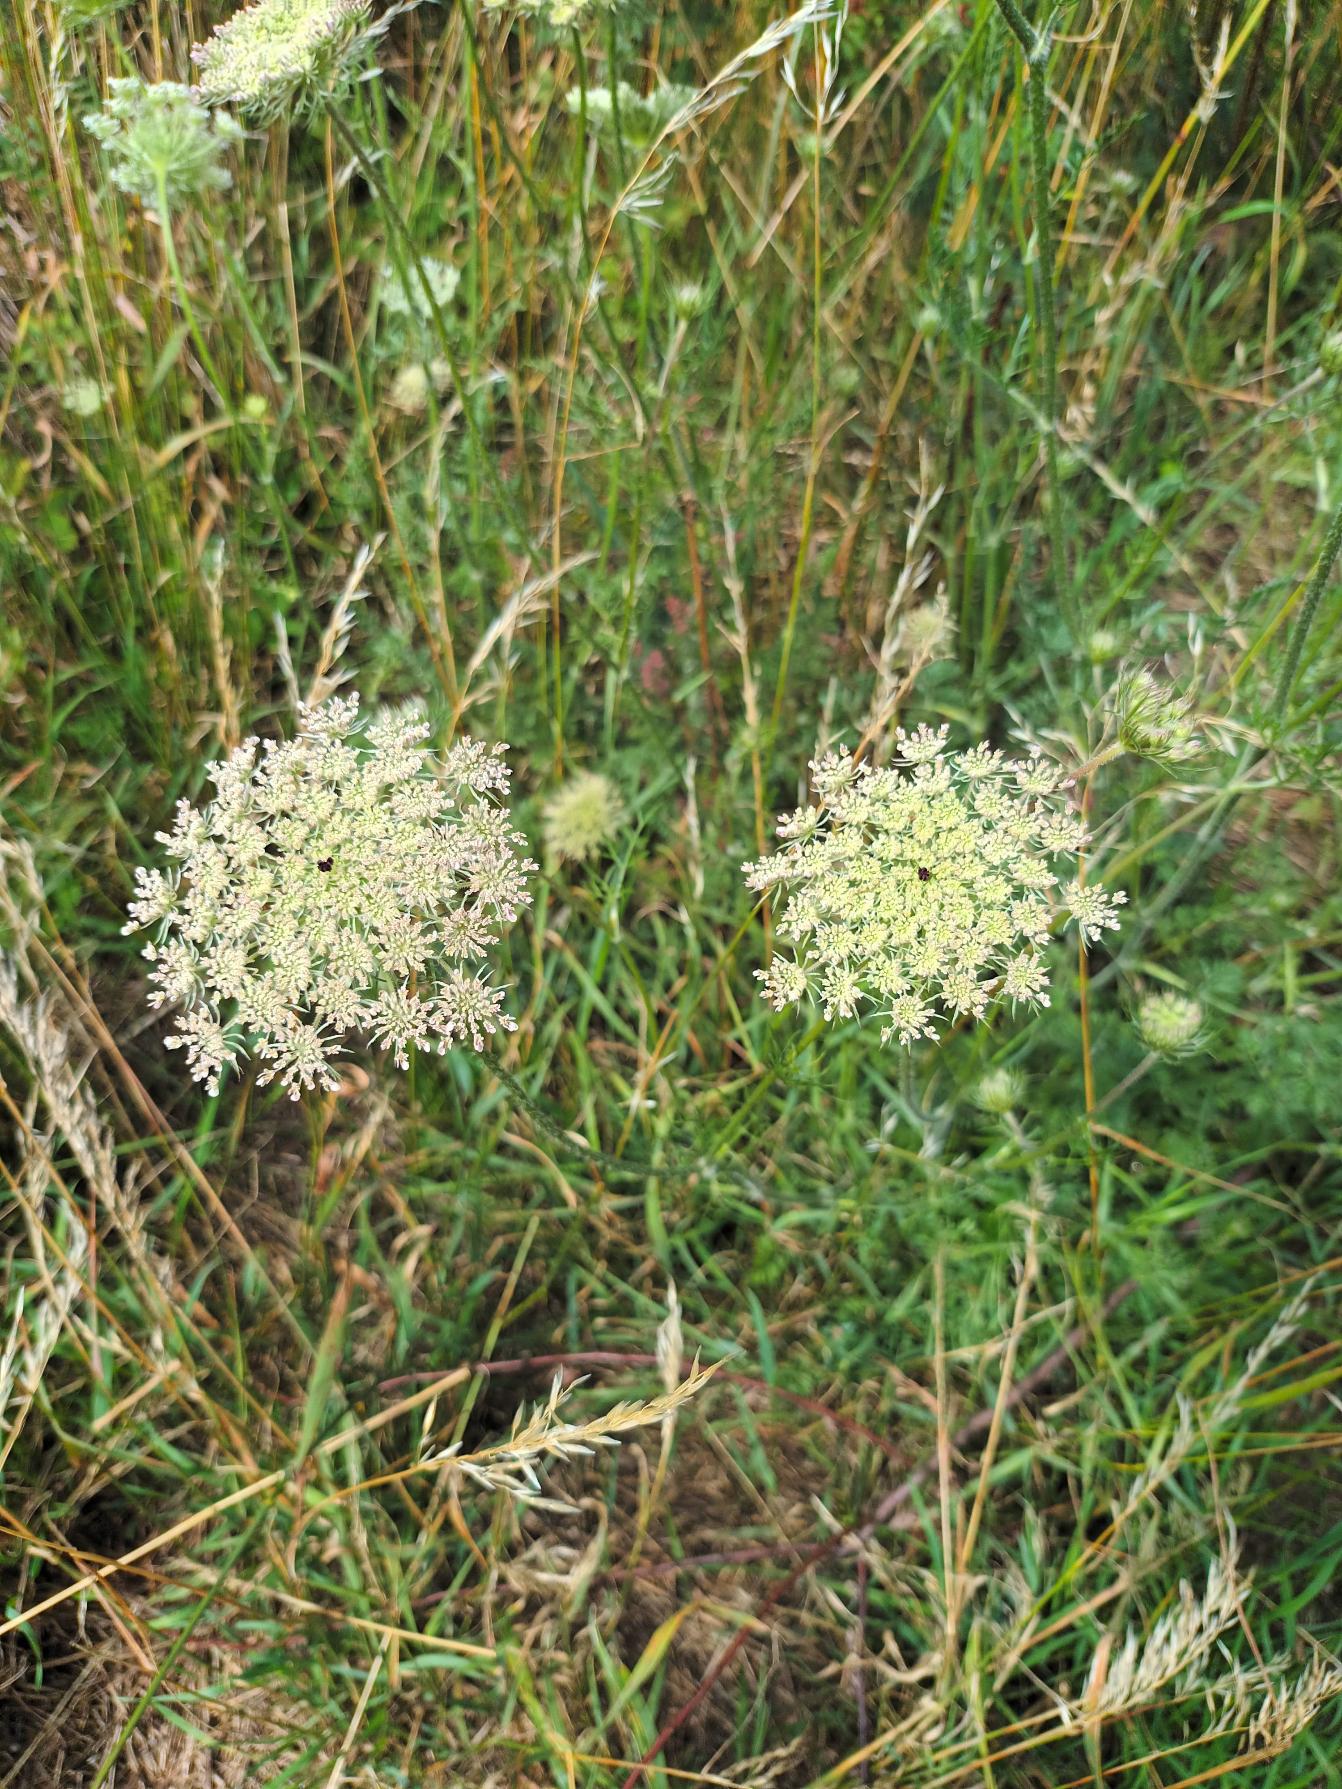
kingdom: Plantae
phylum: Tracheophyta
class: Magnoliopsida
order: Apiales
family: Apiaceae
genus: Daucus
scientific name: Daucus carota
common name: Gulerod
